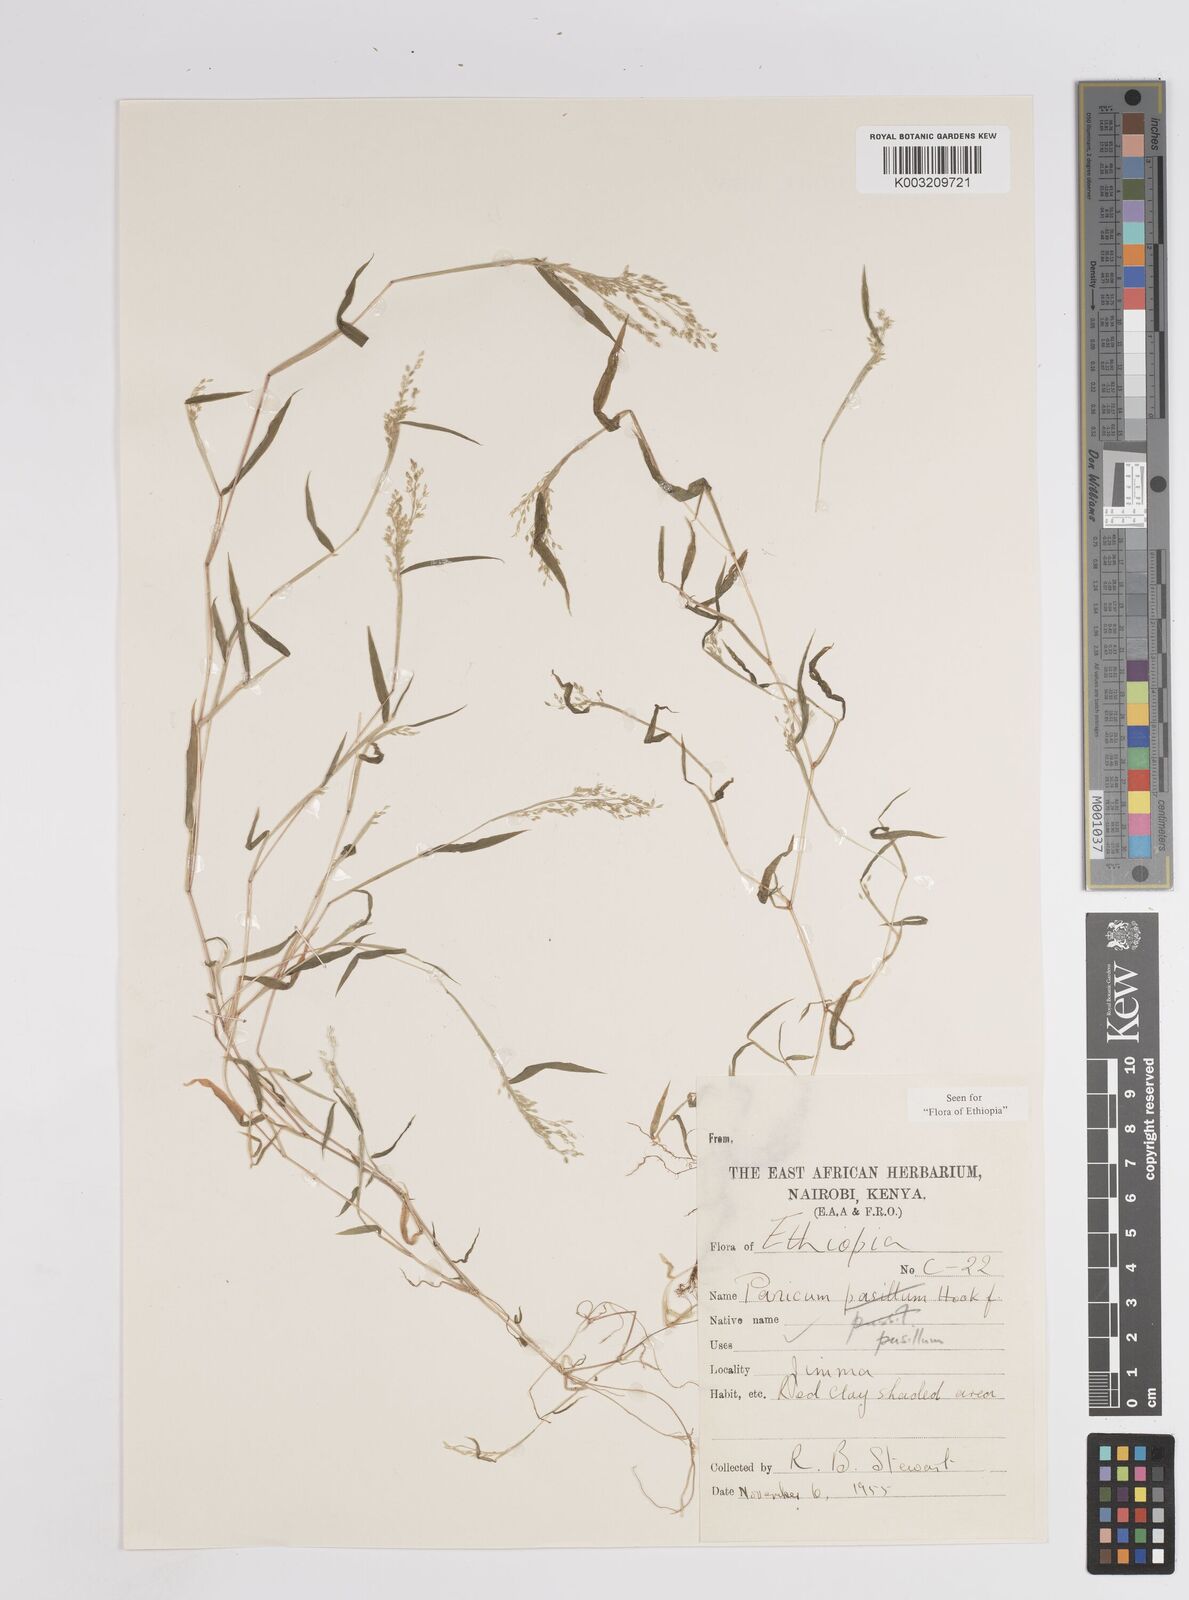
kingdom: Plantae
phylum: Tracheophyta
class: Liliopsida
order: Poales
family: Poaceae
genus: Panicum
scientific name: Panicum pusillum
